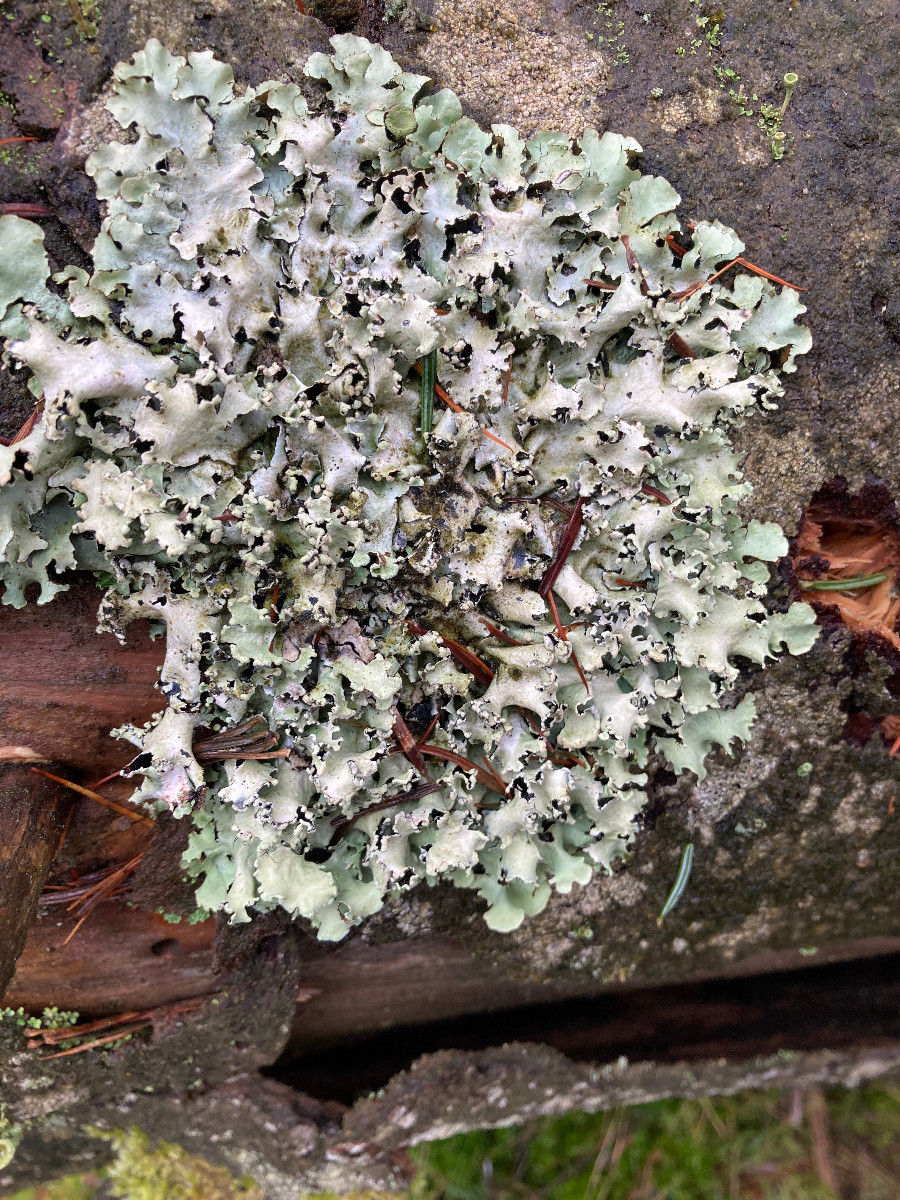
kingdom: Fungi
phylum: Ascomycota
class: Lecanoromycetes
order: Lecanorales
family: Parmeliaceae
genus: Parmotrema
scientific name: Parmotrema perlatum
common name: trådet skållav
